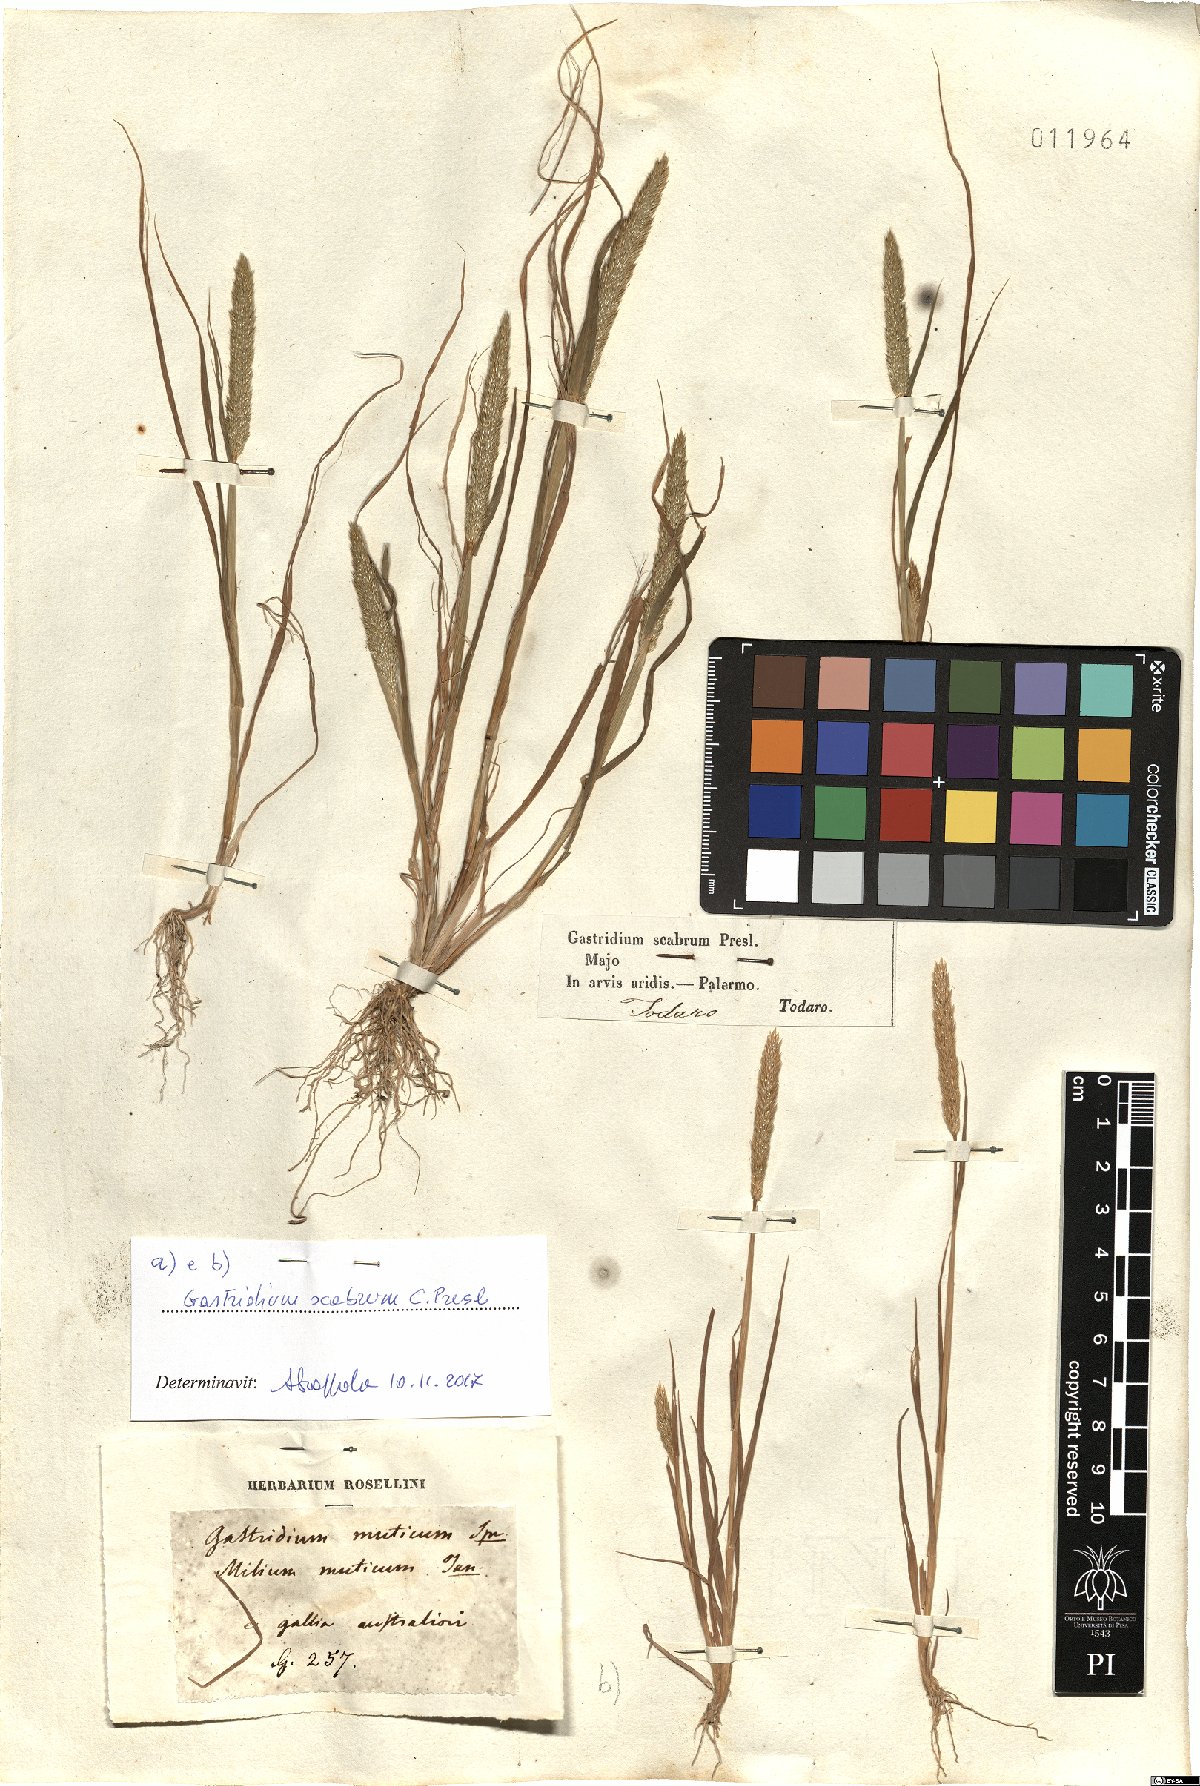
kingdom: Plantae
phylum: Tracheophyta
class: Liliopsida
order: Poales
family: Poaceae
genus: Gastridium
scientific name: Gastridium scabrum
